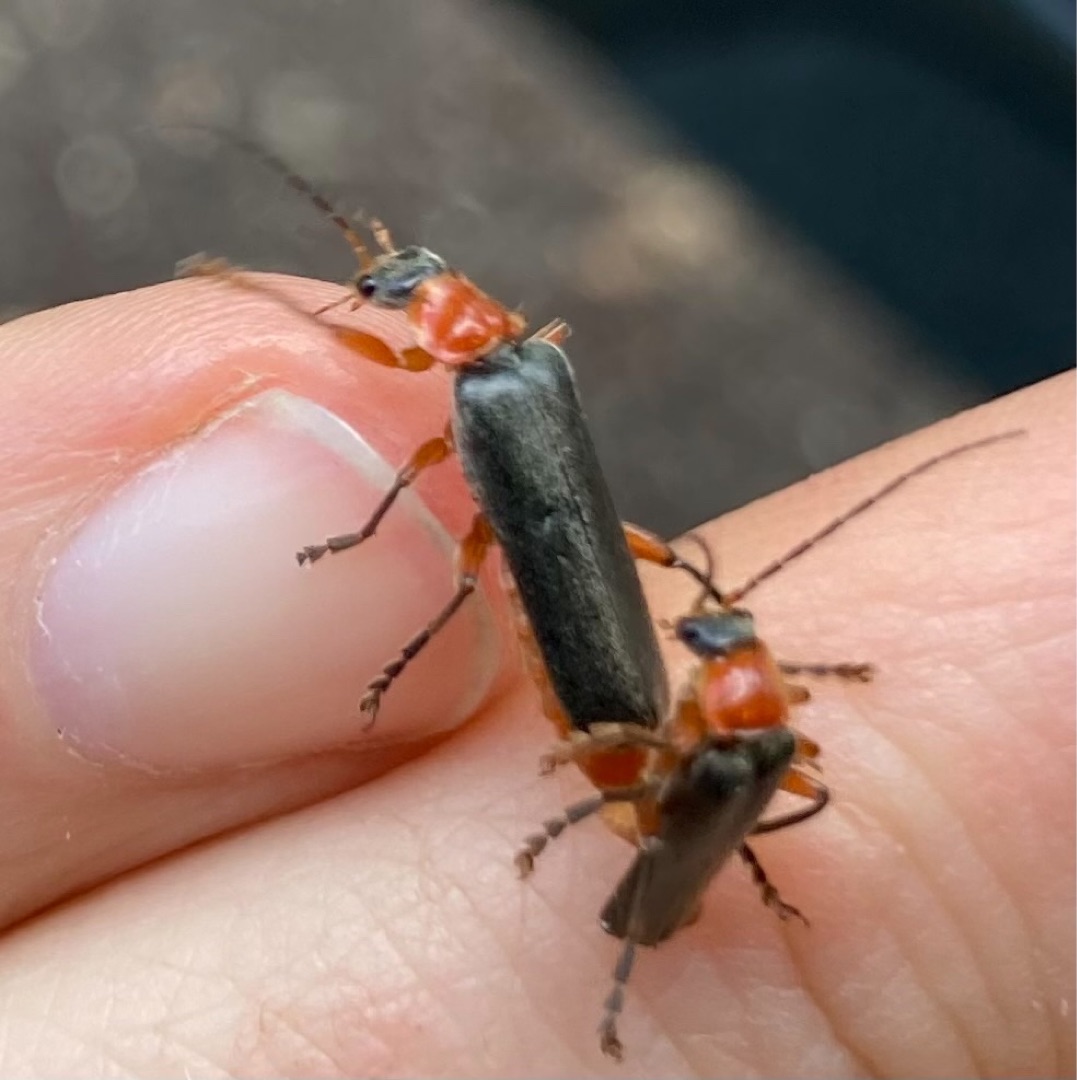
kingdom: Animalia
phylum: Arthropoda
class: Insecta
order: Coleoptera
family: Cantharidae
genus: Cantharis
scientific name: Cantharis pellucida
